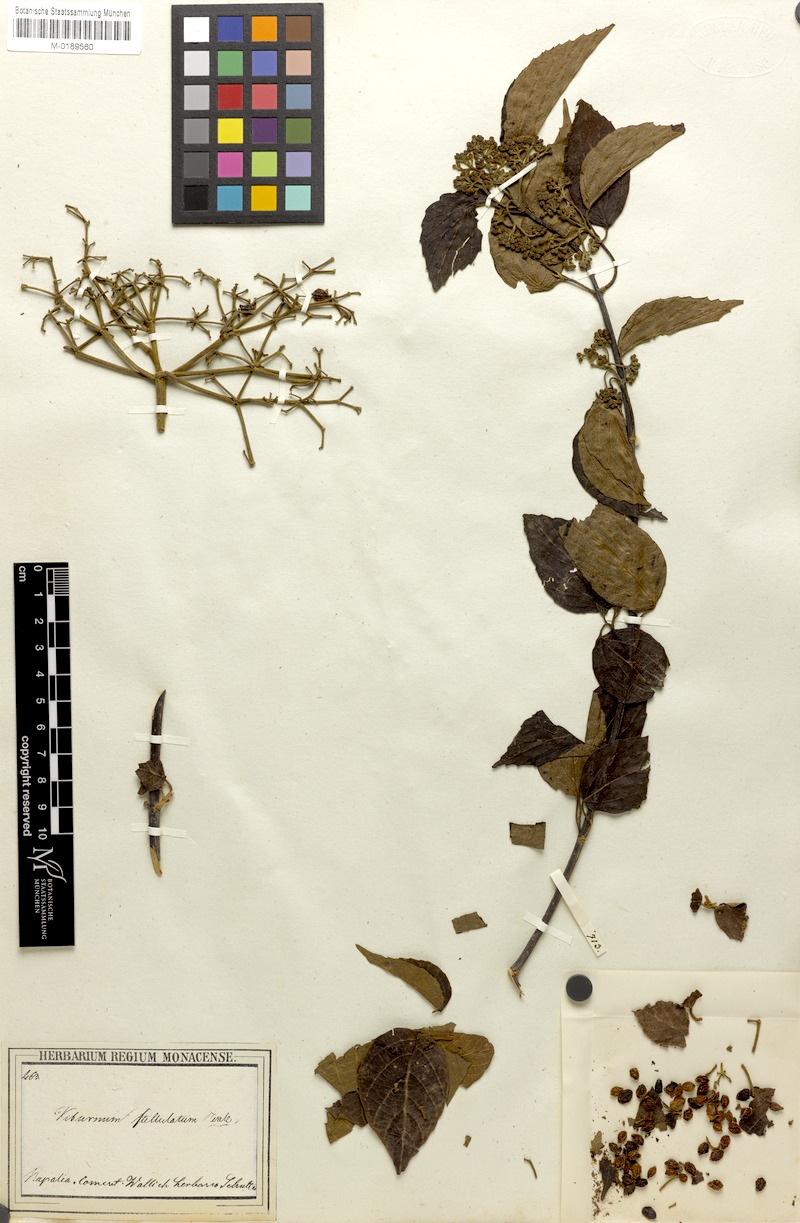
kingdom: Plantae
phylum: Tracheophyta
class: Magnoliopsida
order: Dipsacales
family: Viburnaceae
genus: Viburnum
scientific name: Viburnum mullaha
